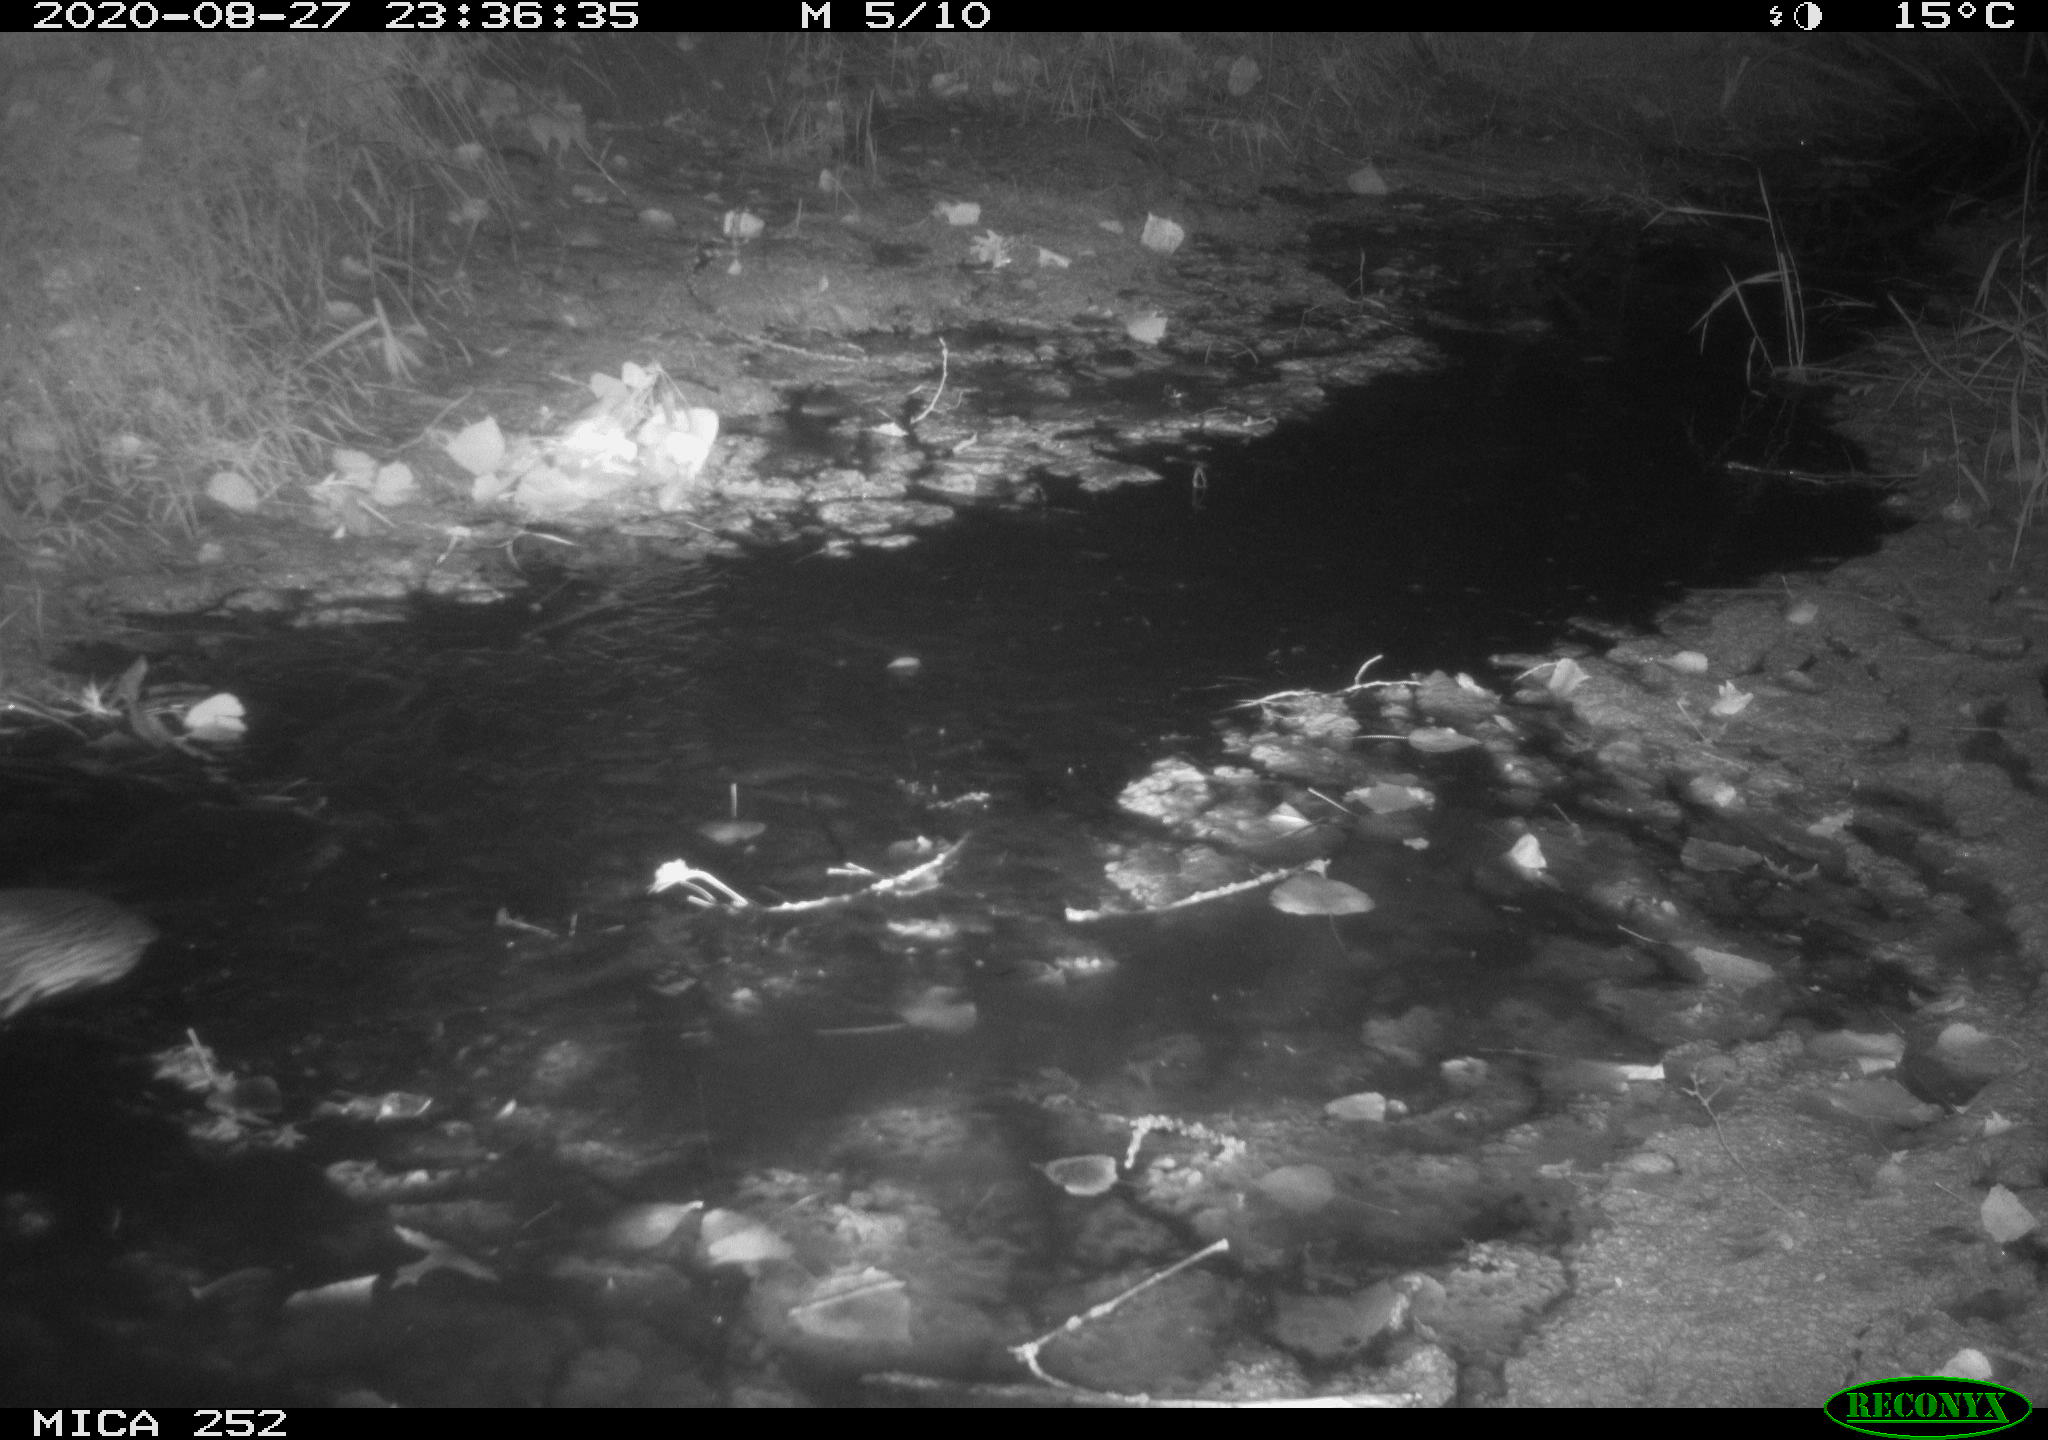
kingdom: Animalia
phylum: Chordata
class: Mammalia
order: Rodentia
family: Castoridae
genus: Castor
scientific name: Castor fiber
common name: Eurasian beaver
